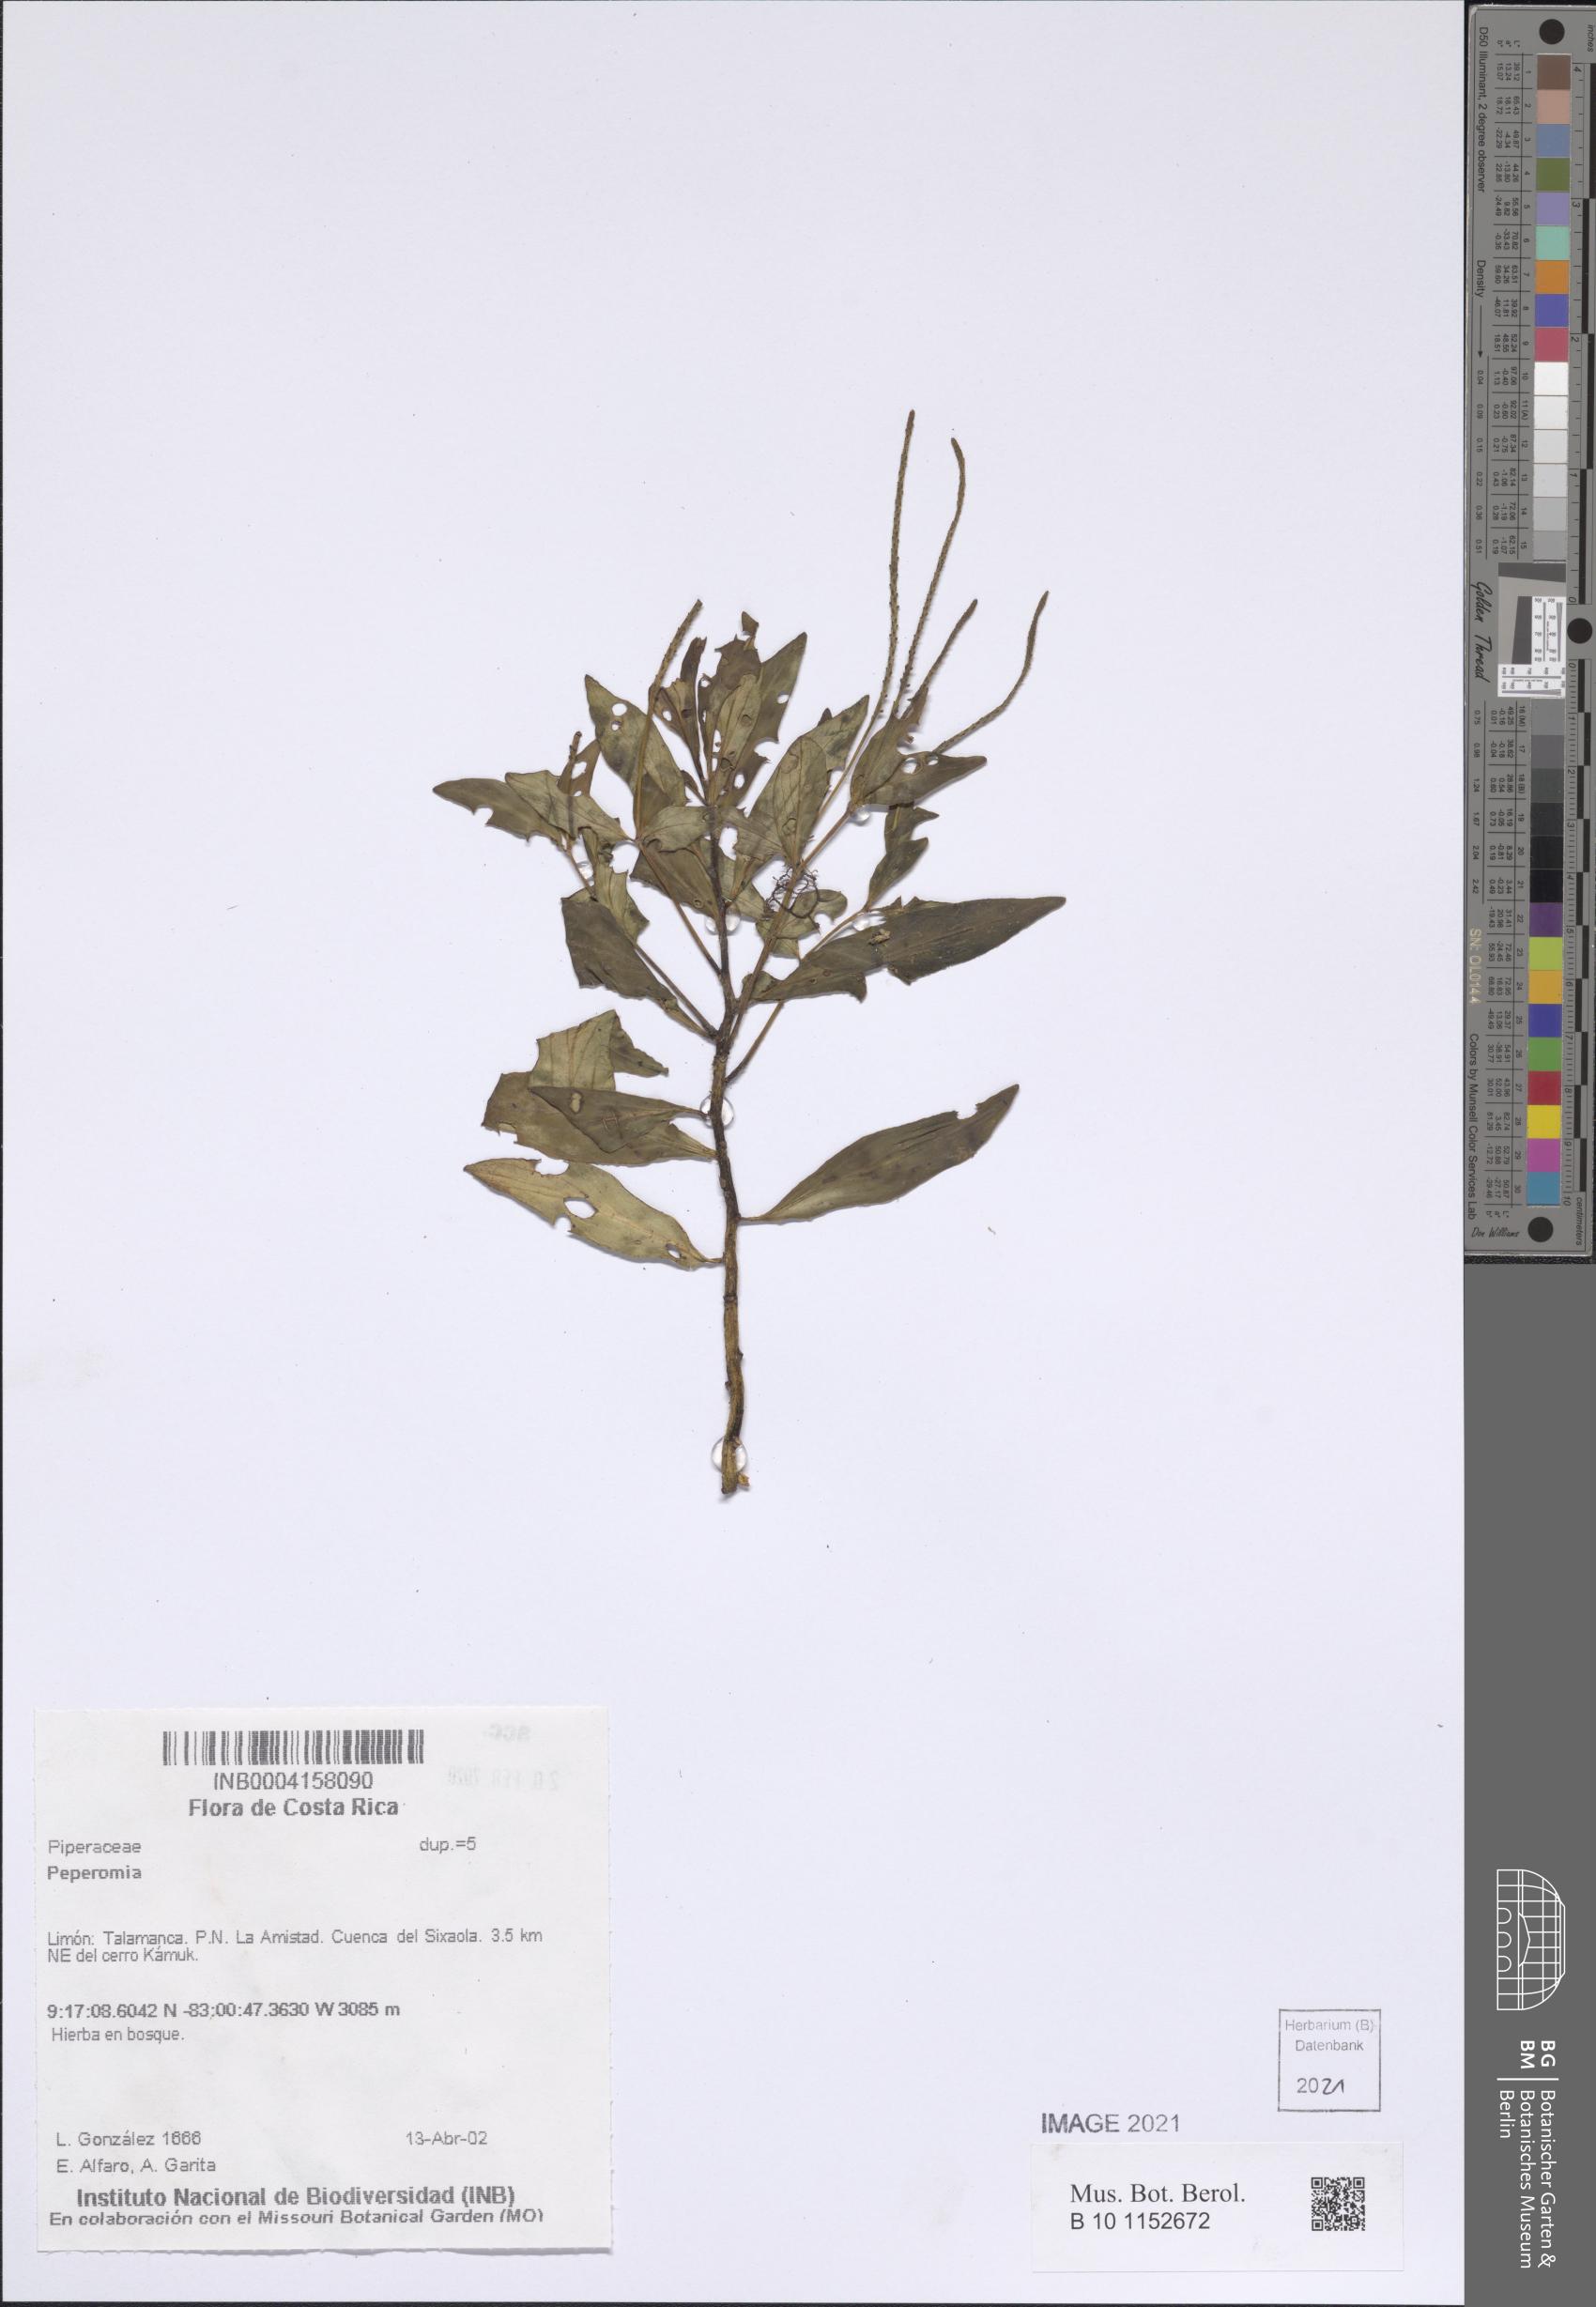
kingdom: Plantae
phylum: Tracheophyta
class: Magnoliopsida
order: Piperales
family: Piperaceae
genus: Peperomia
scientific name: Peperomia
